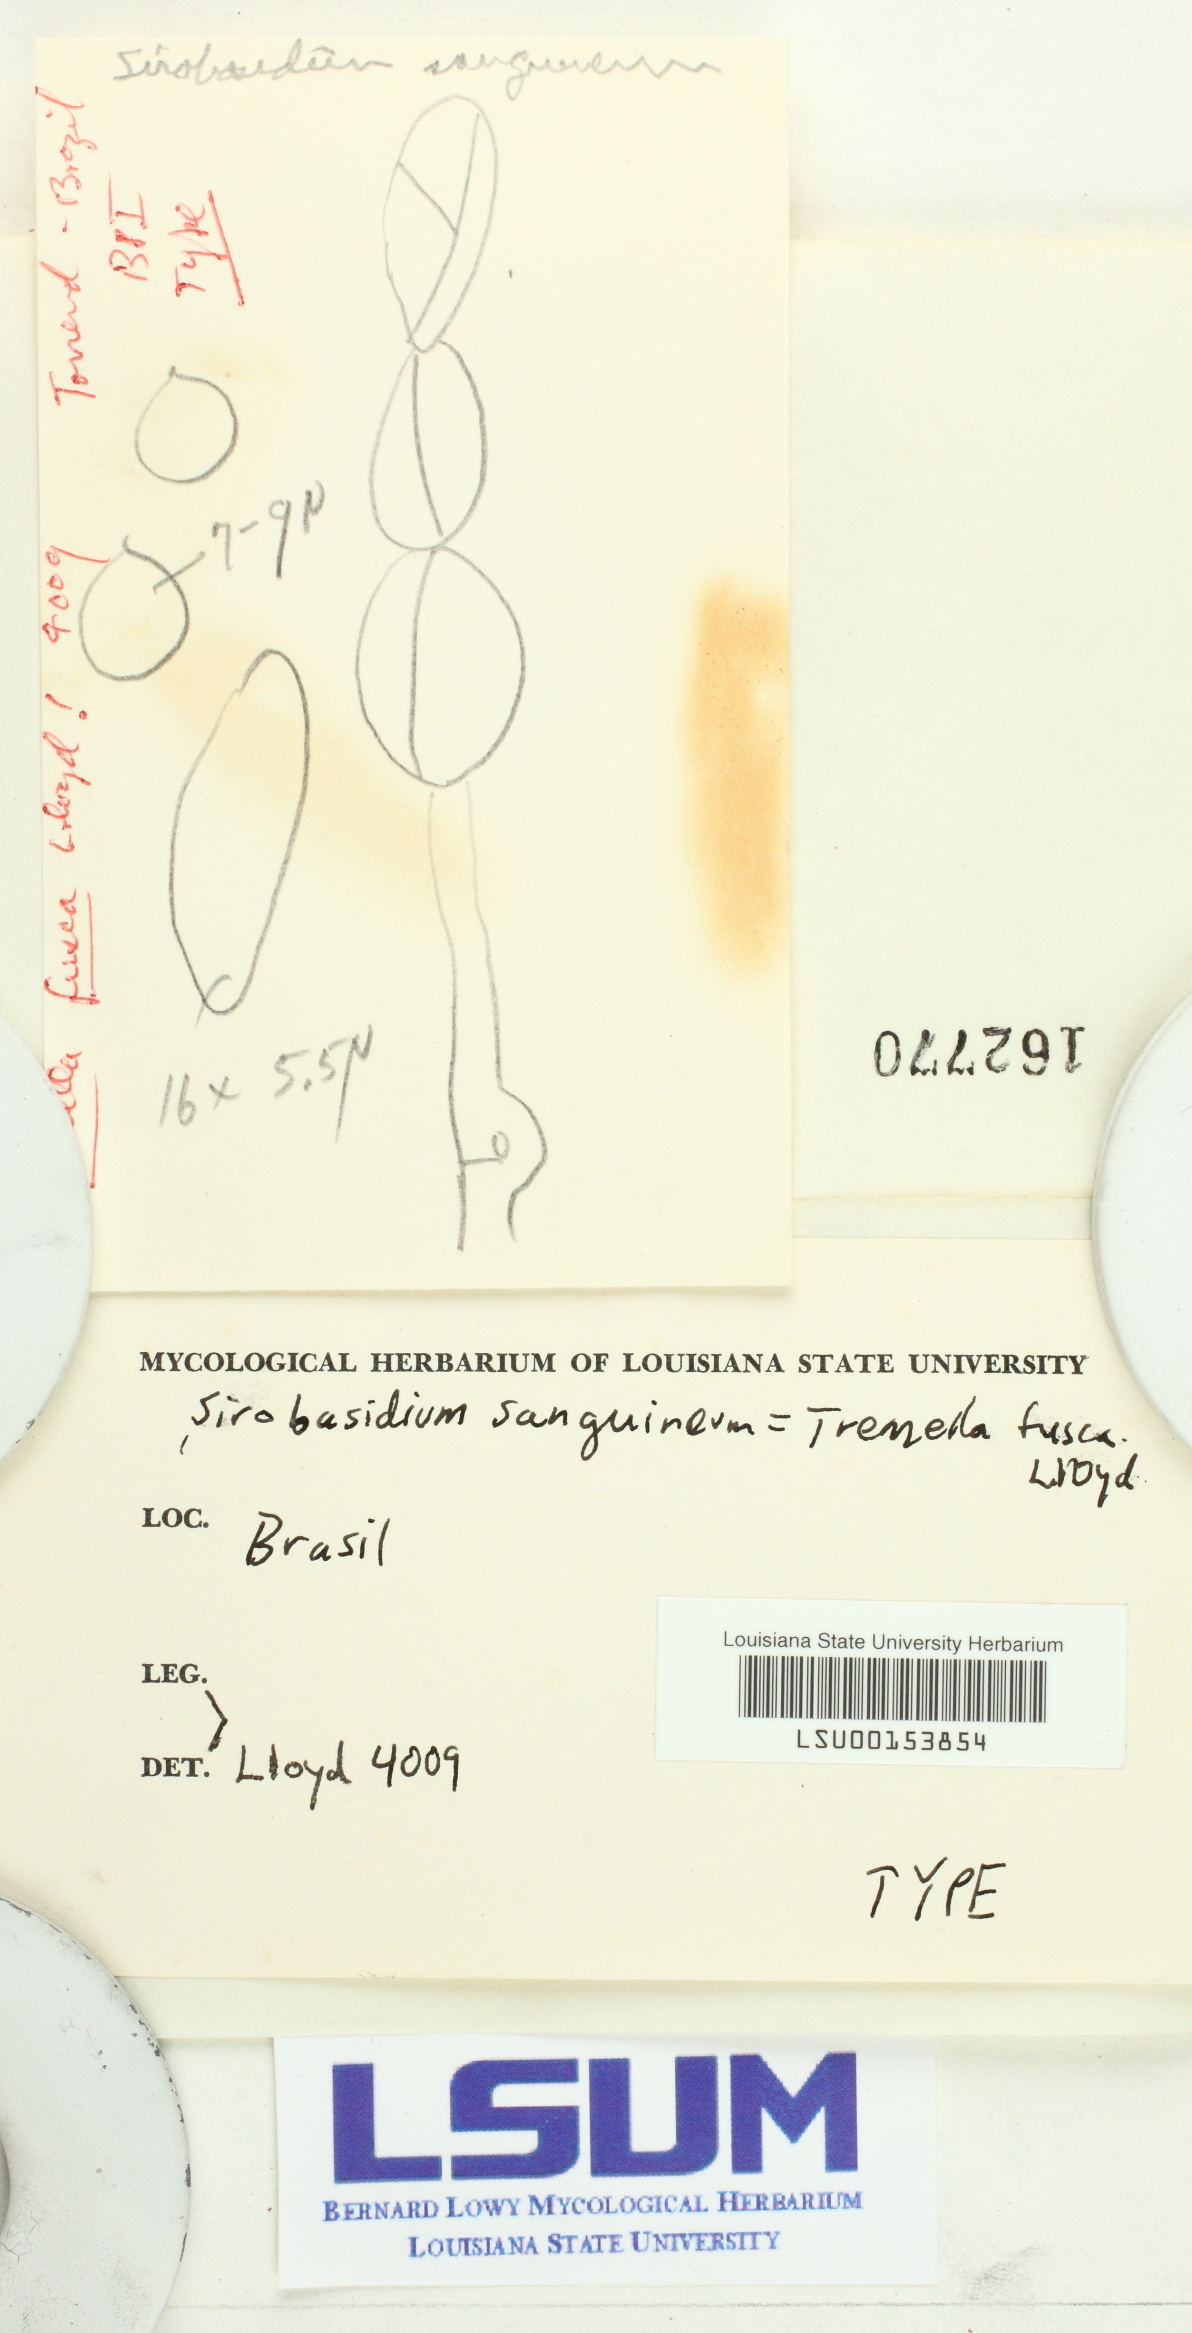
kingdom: Fungi
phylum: Basidiomycota
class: Tremellomycetes
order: Tremellales
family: Sirobasidiaceae
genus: Sirobasidium
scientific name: Sirobasidium sanguineum
